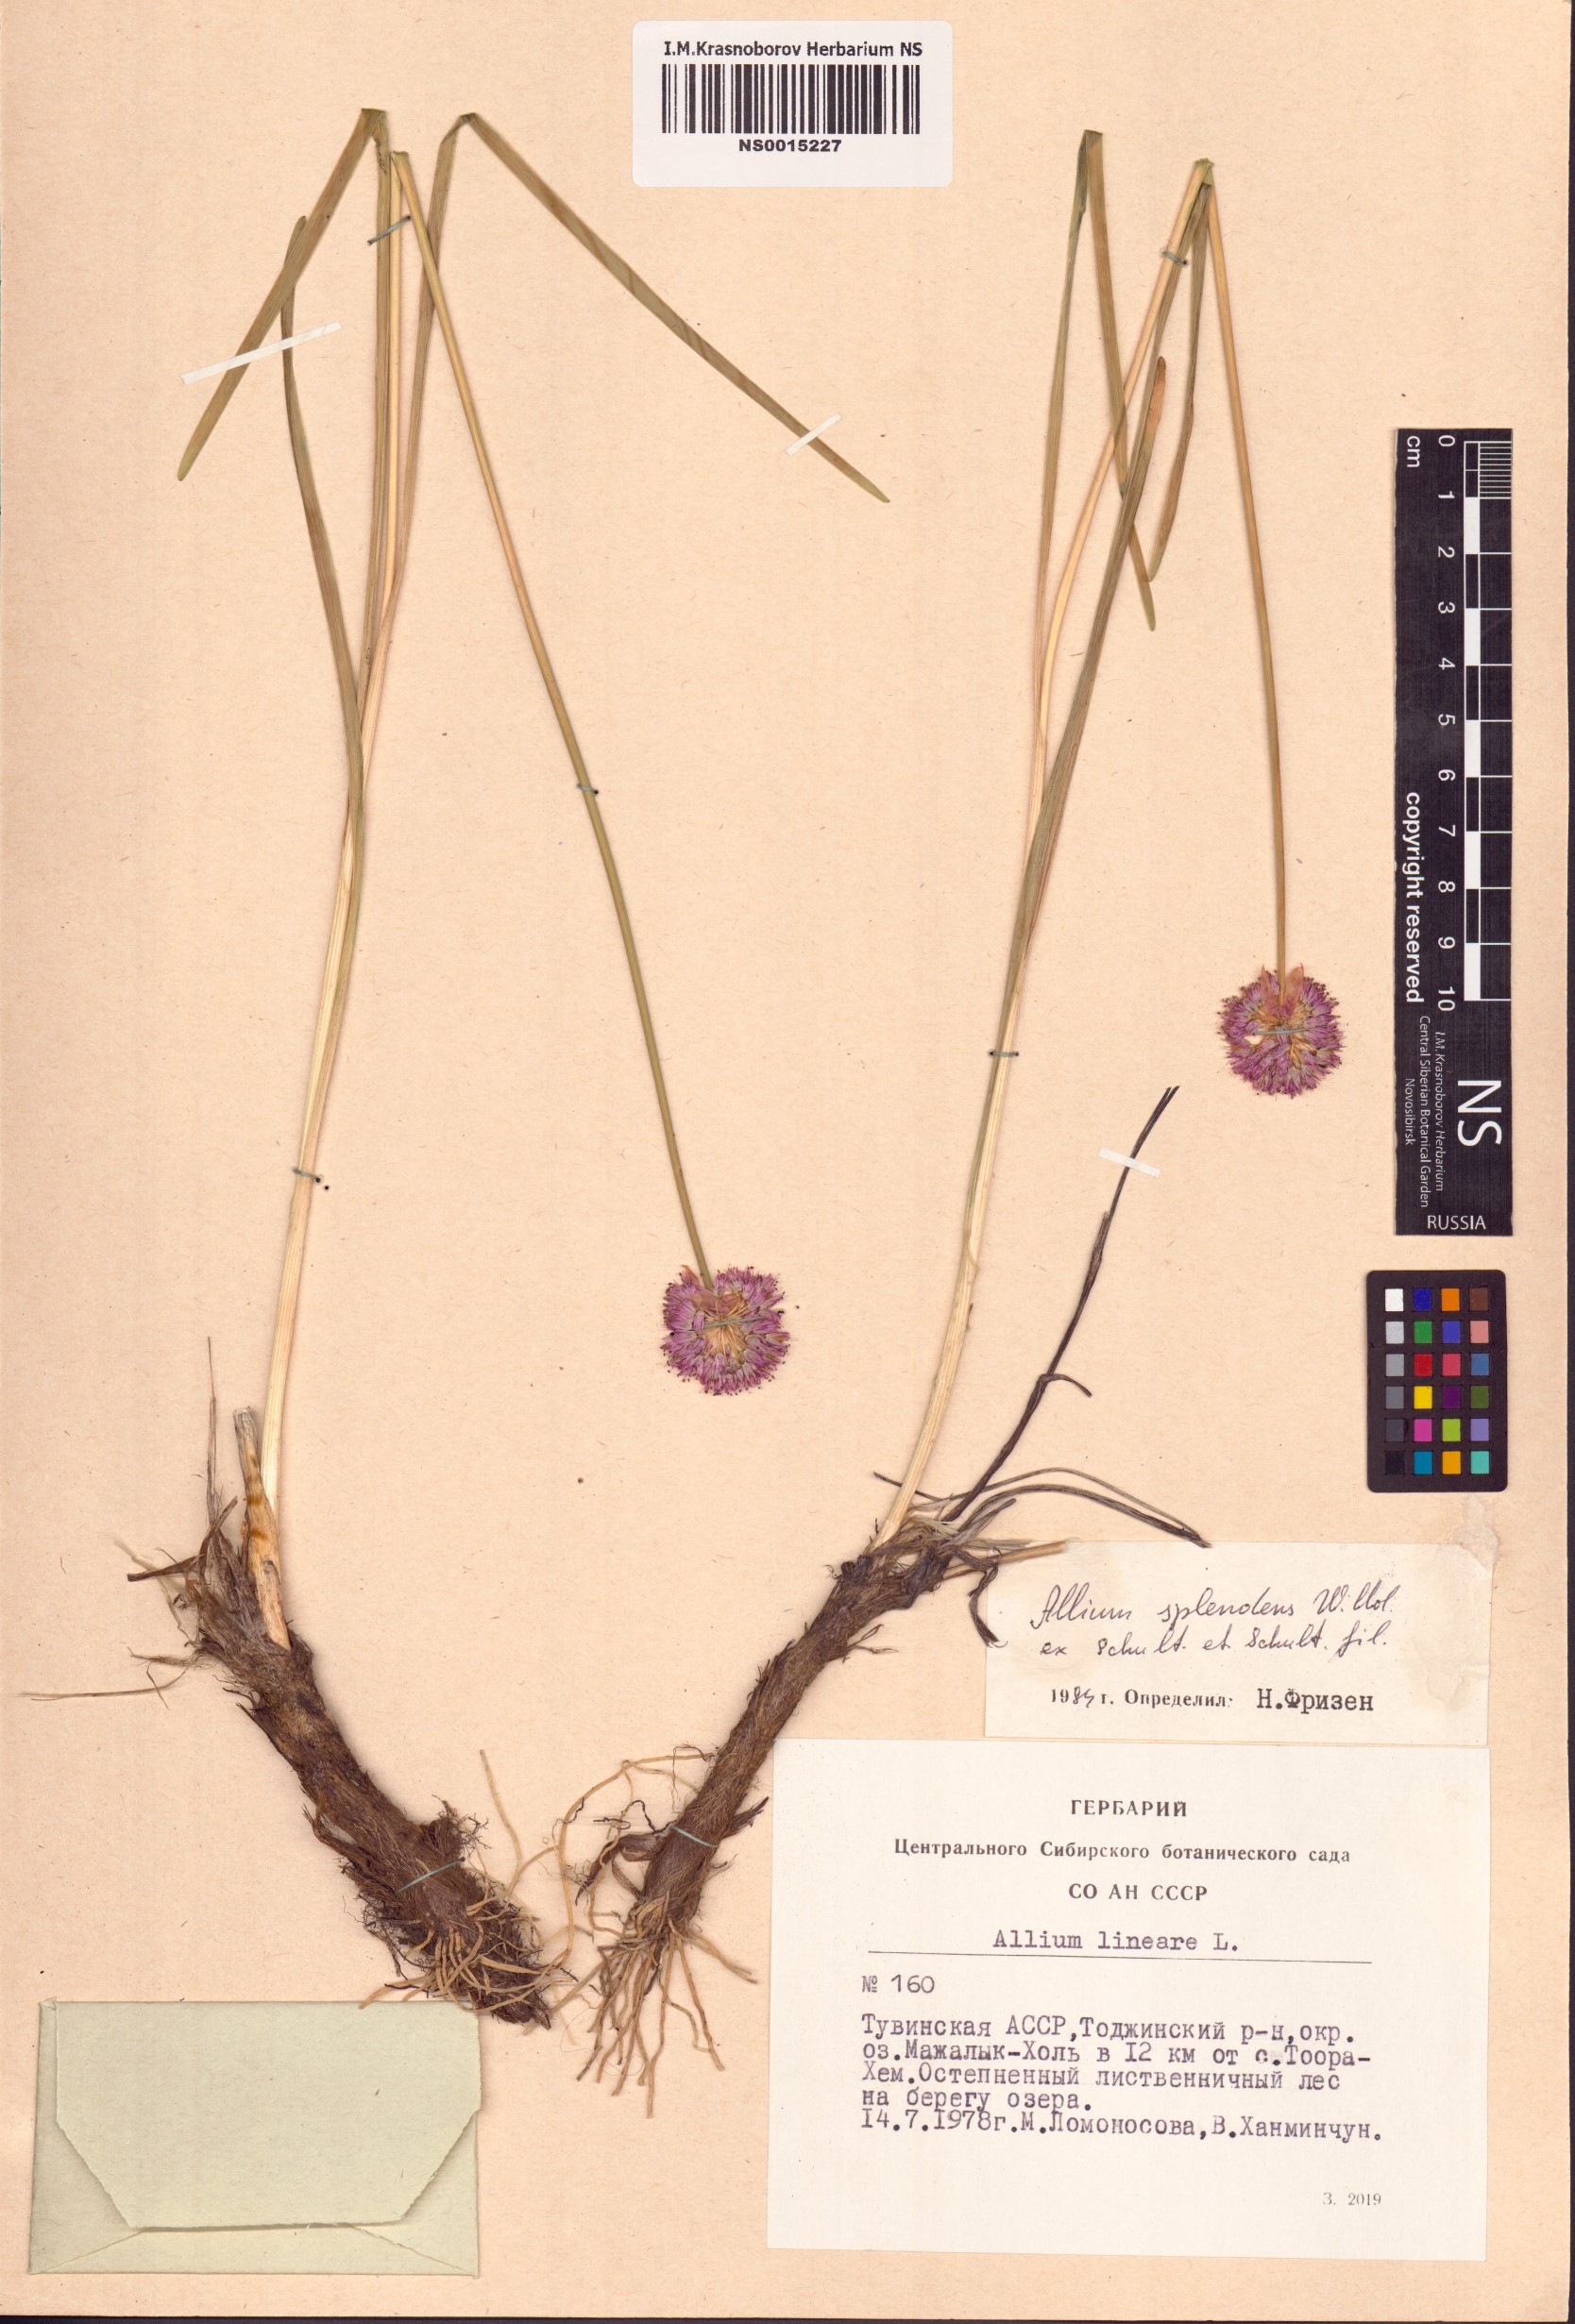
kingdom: Plantae
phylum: Tracheophyta
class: Liliopsida
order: Asparagales
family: Amaryllidaceae
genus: Allium
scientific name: Allium splendens
